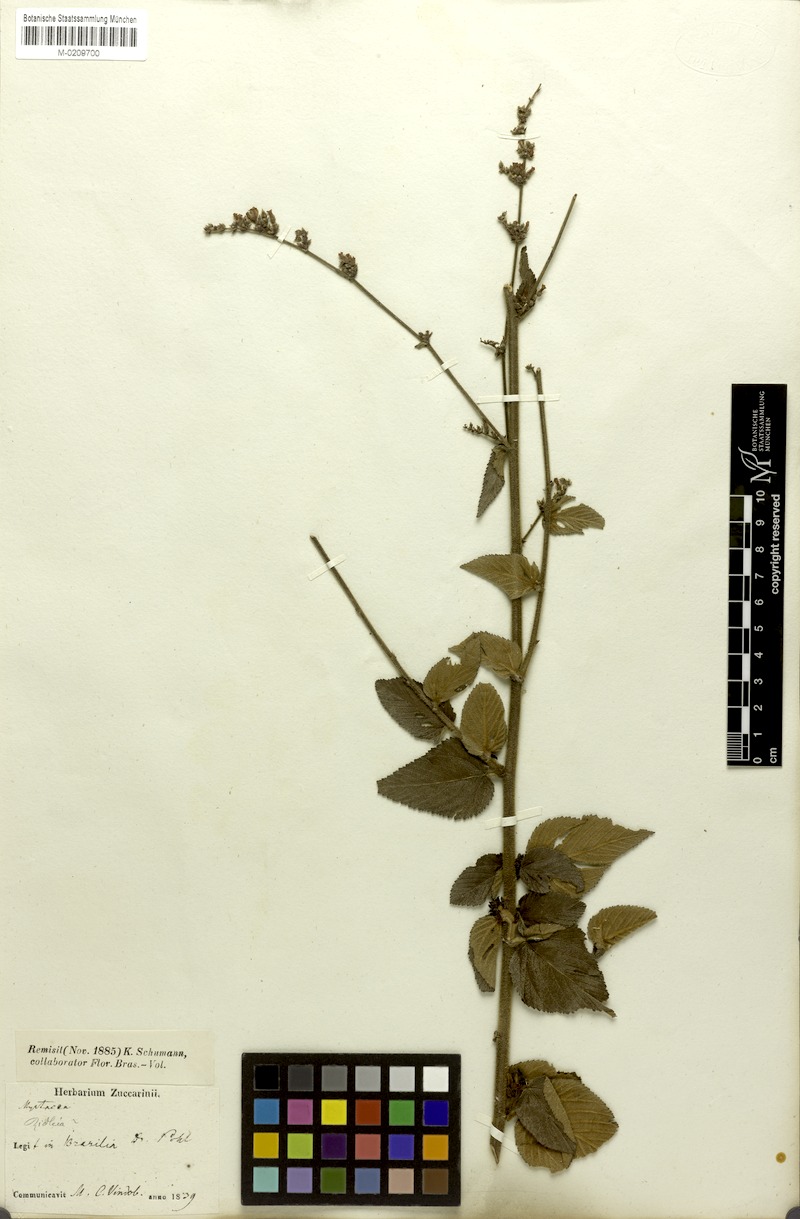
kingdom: Plantae
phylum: Tracheophyta
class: Magnoliopsida
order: Malvales
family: Malvaceae
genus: Melochia
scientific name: Melochia pilosa
